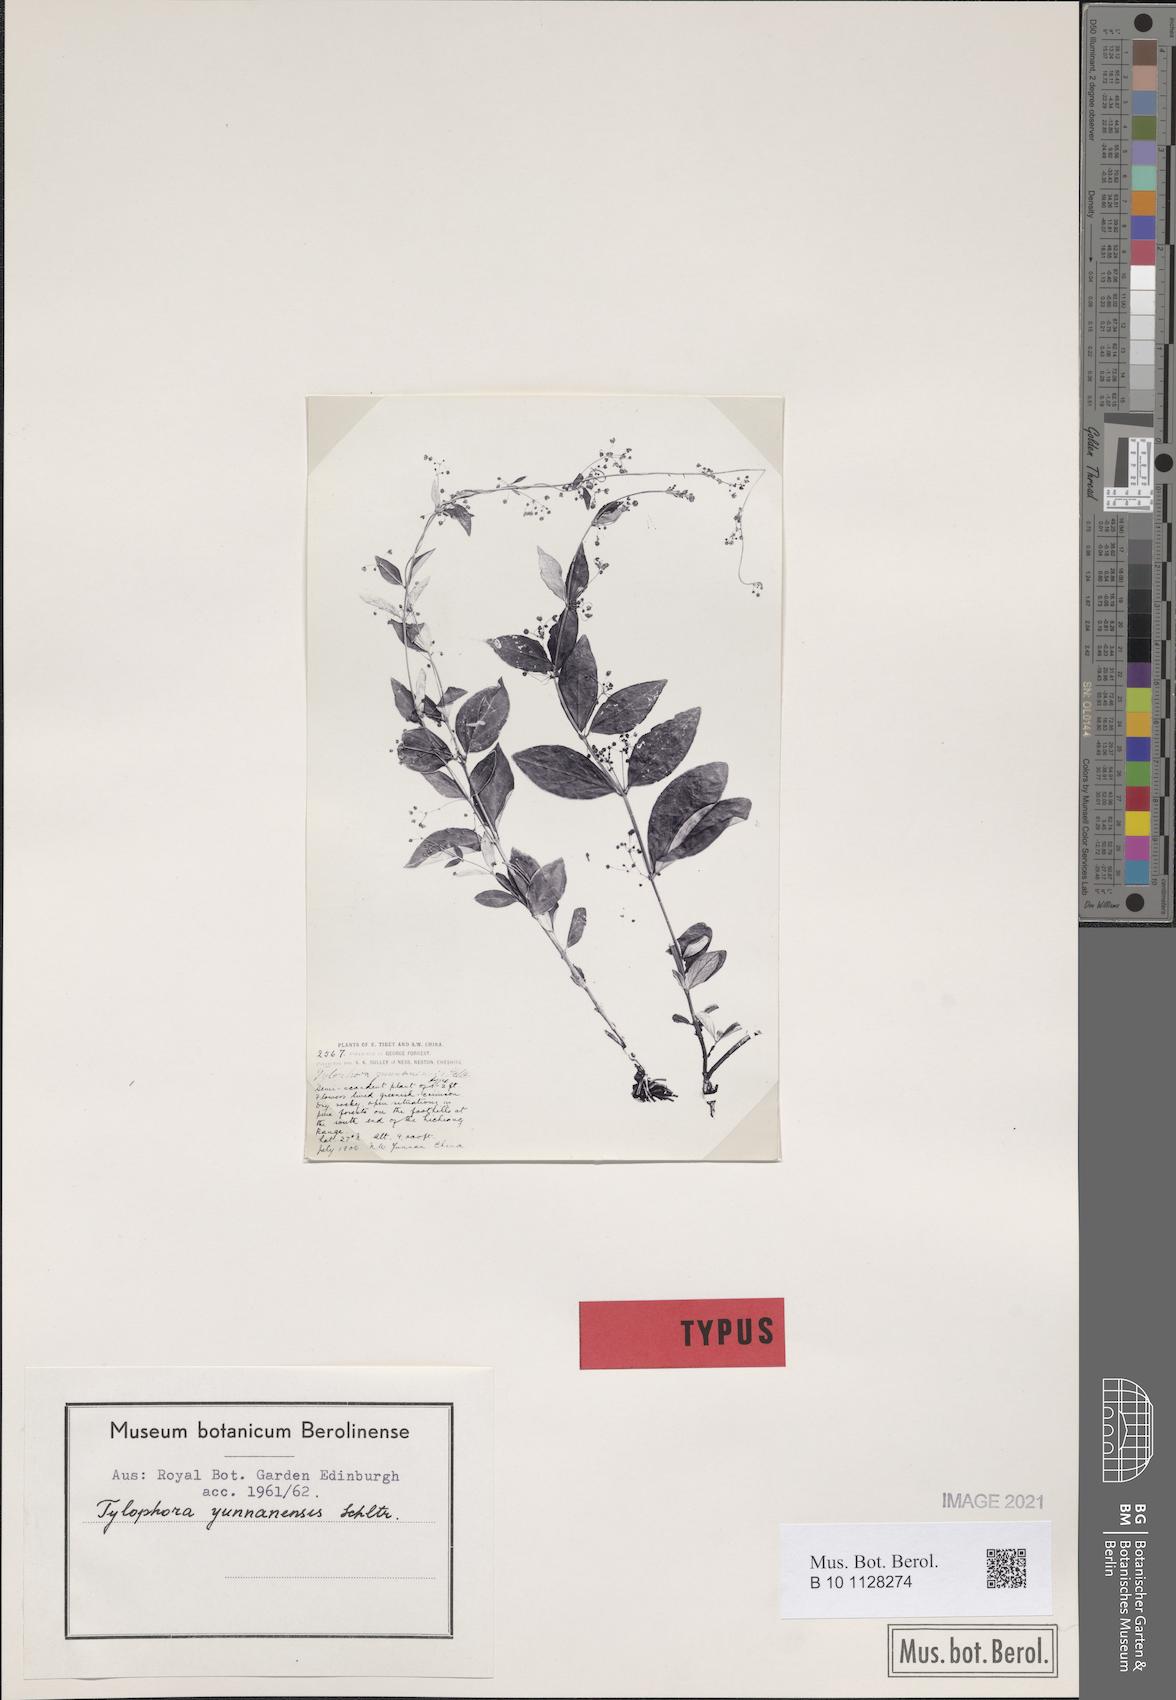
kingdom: Plantae
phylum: Tracheophyta
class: Magnoliopsida
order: Gentianales
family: Apocynaceae
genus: Vincetoxicum
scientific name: Vincetoxicum yunnanense
